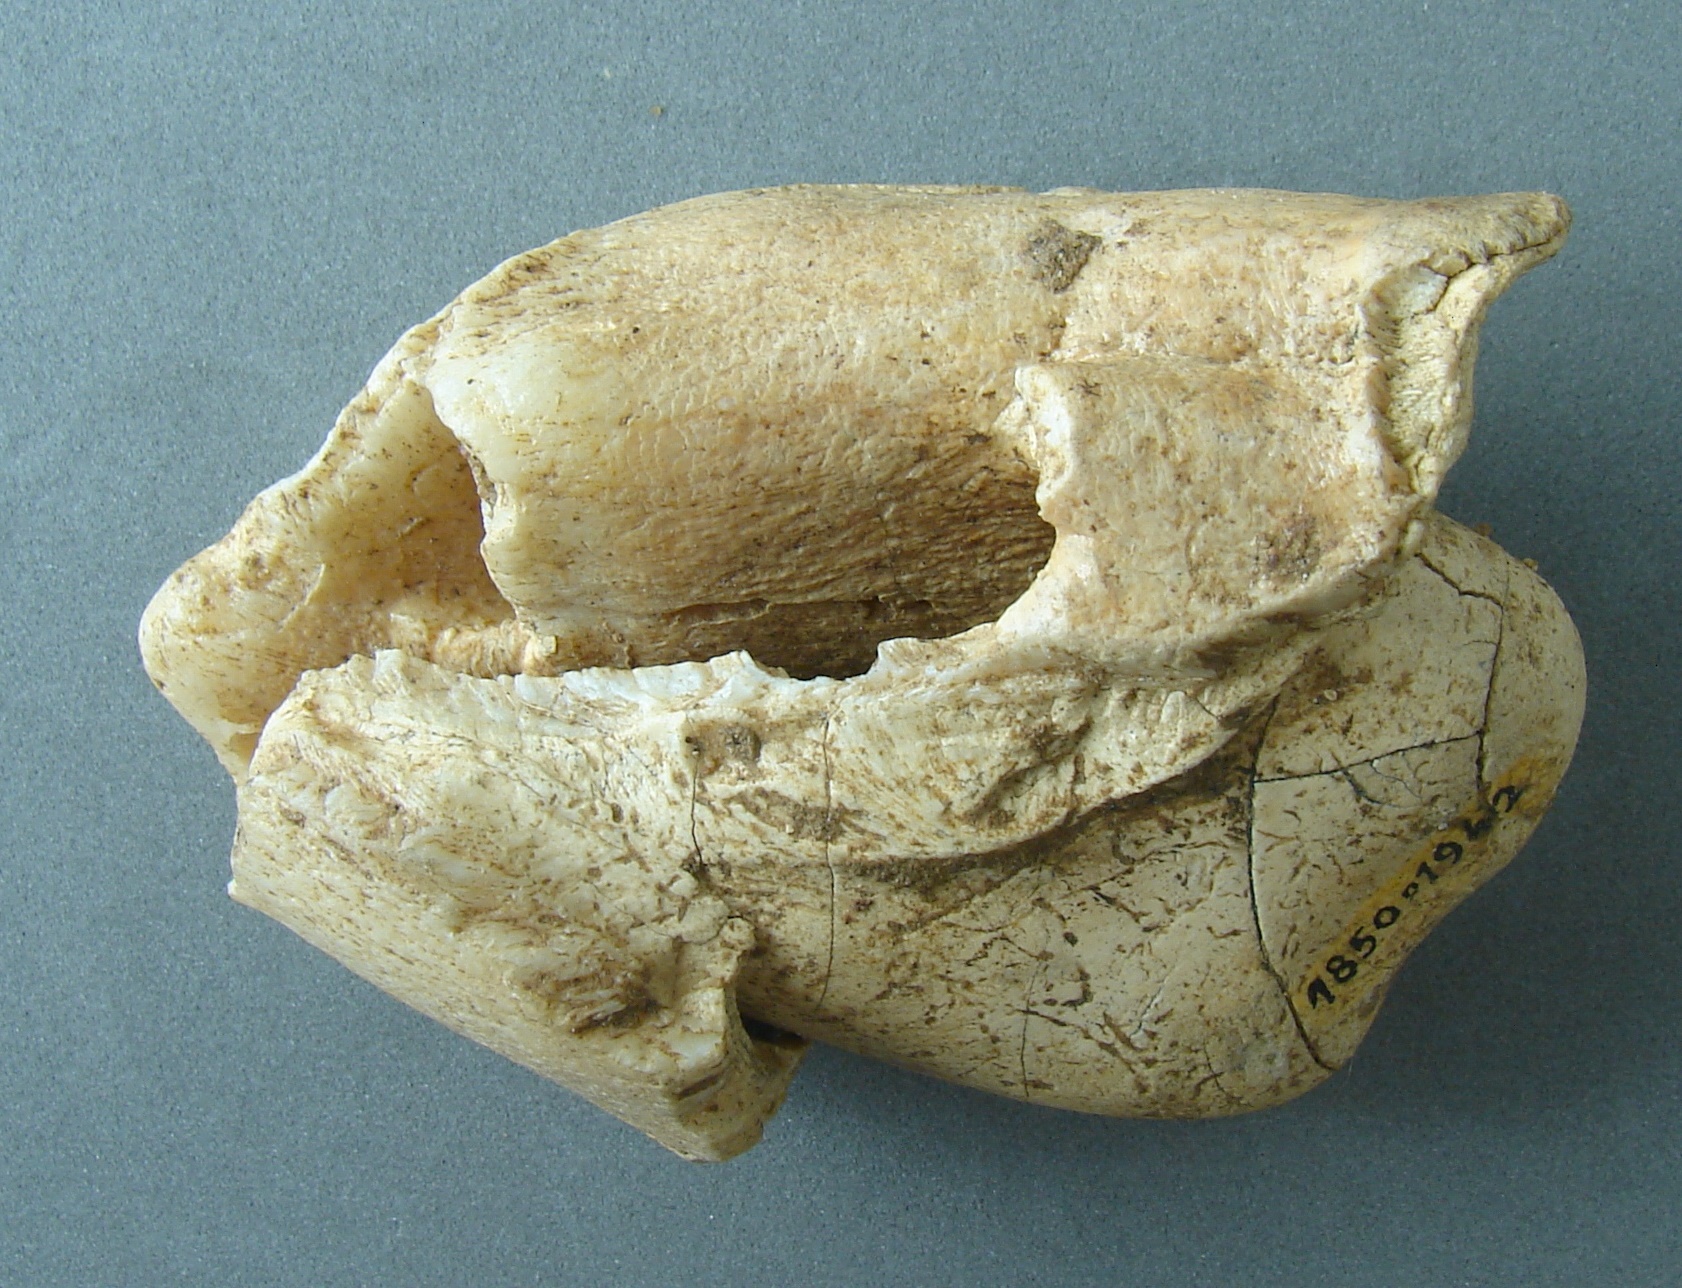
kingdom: Animalia
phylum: Chordata
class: Mammalia
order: Perissodactyla
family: Rhinocerotidae
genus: Rhinoceros
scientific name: Rhinoceros
